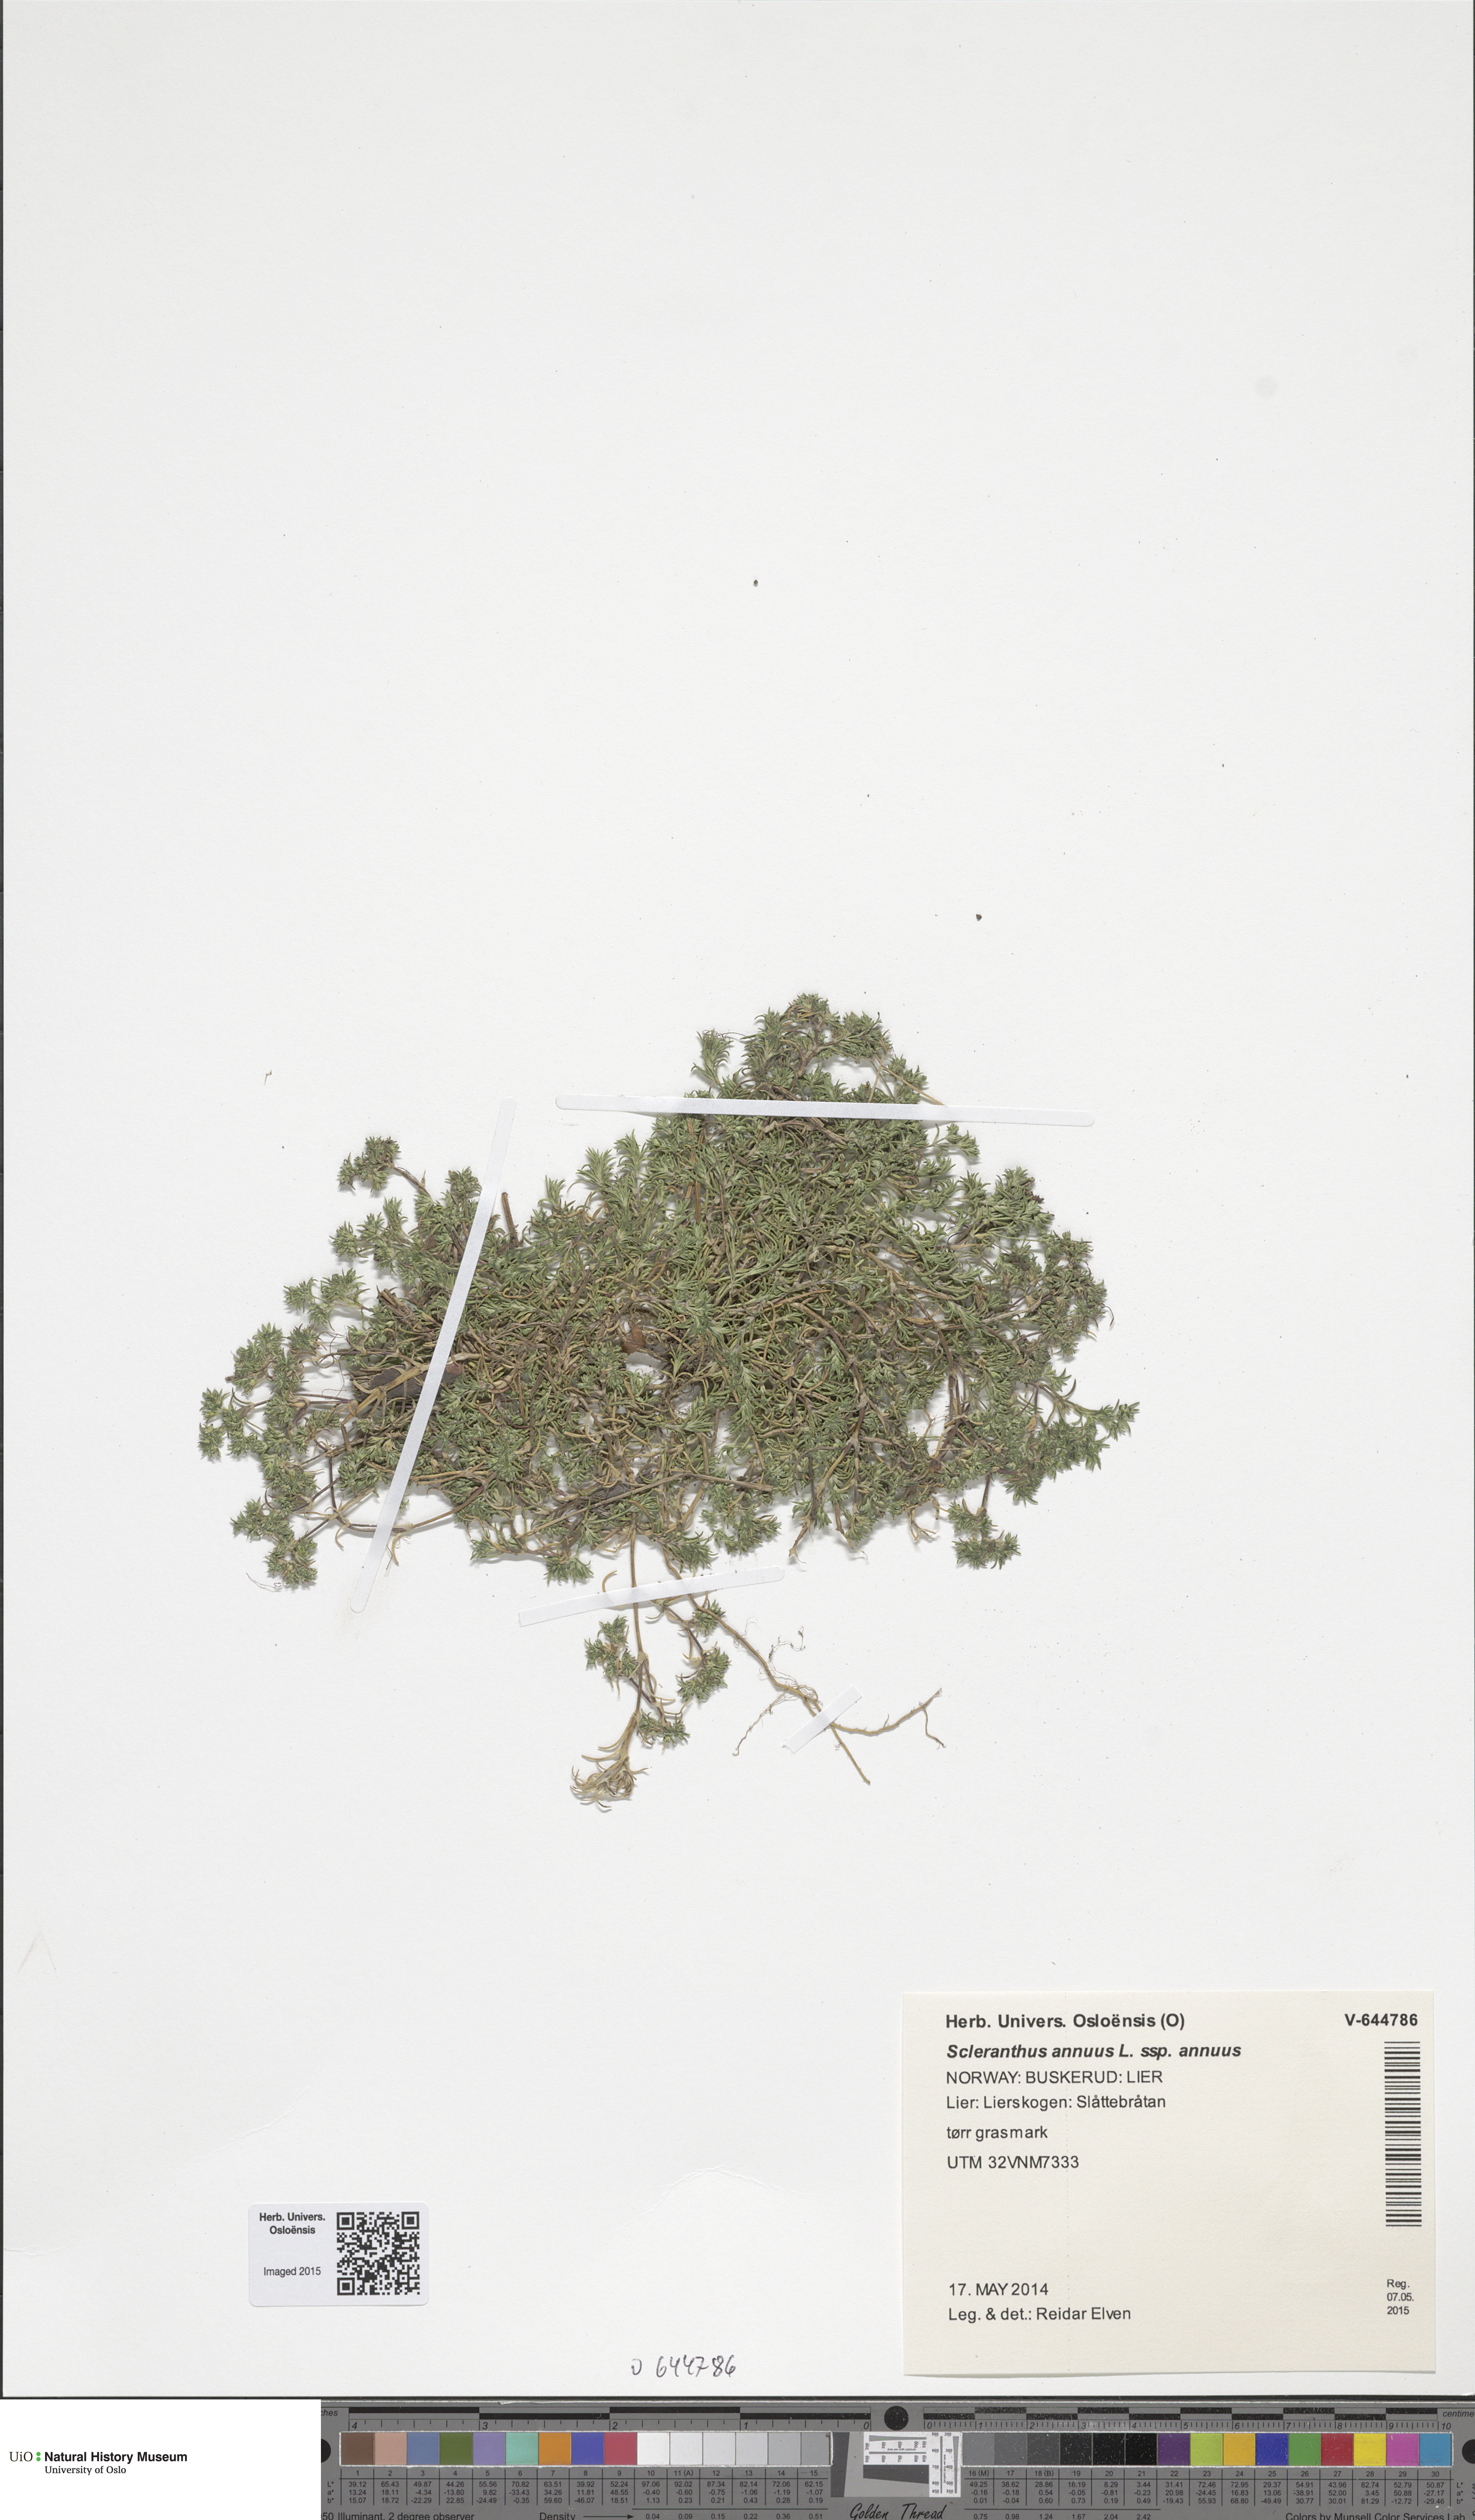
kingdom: Plantae
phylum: Tracheophyta
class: Magnoliopsida
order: Caryophyllales
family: Caryophyllaceae
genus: Scleranthus
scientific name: Scleranthus annuus
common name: Annual knawel
